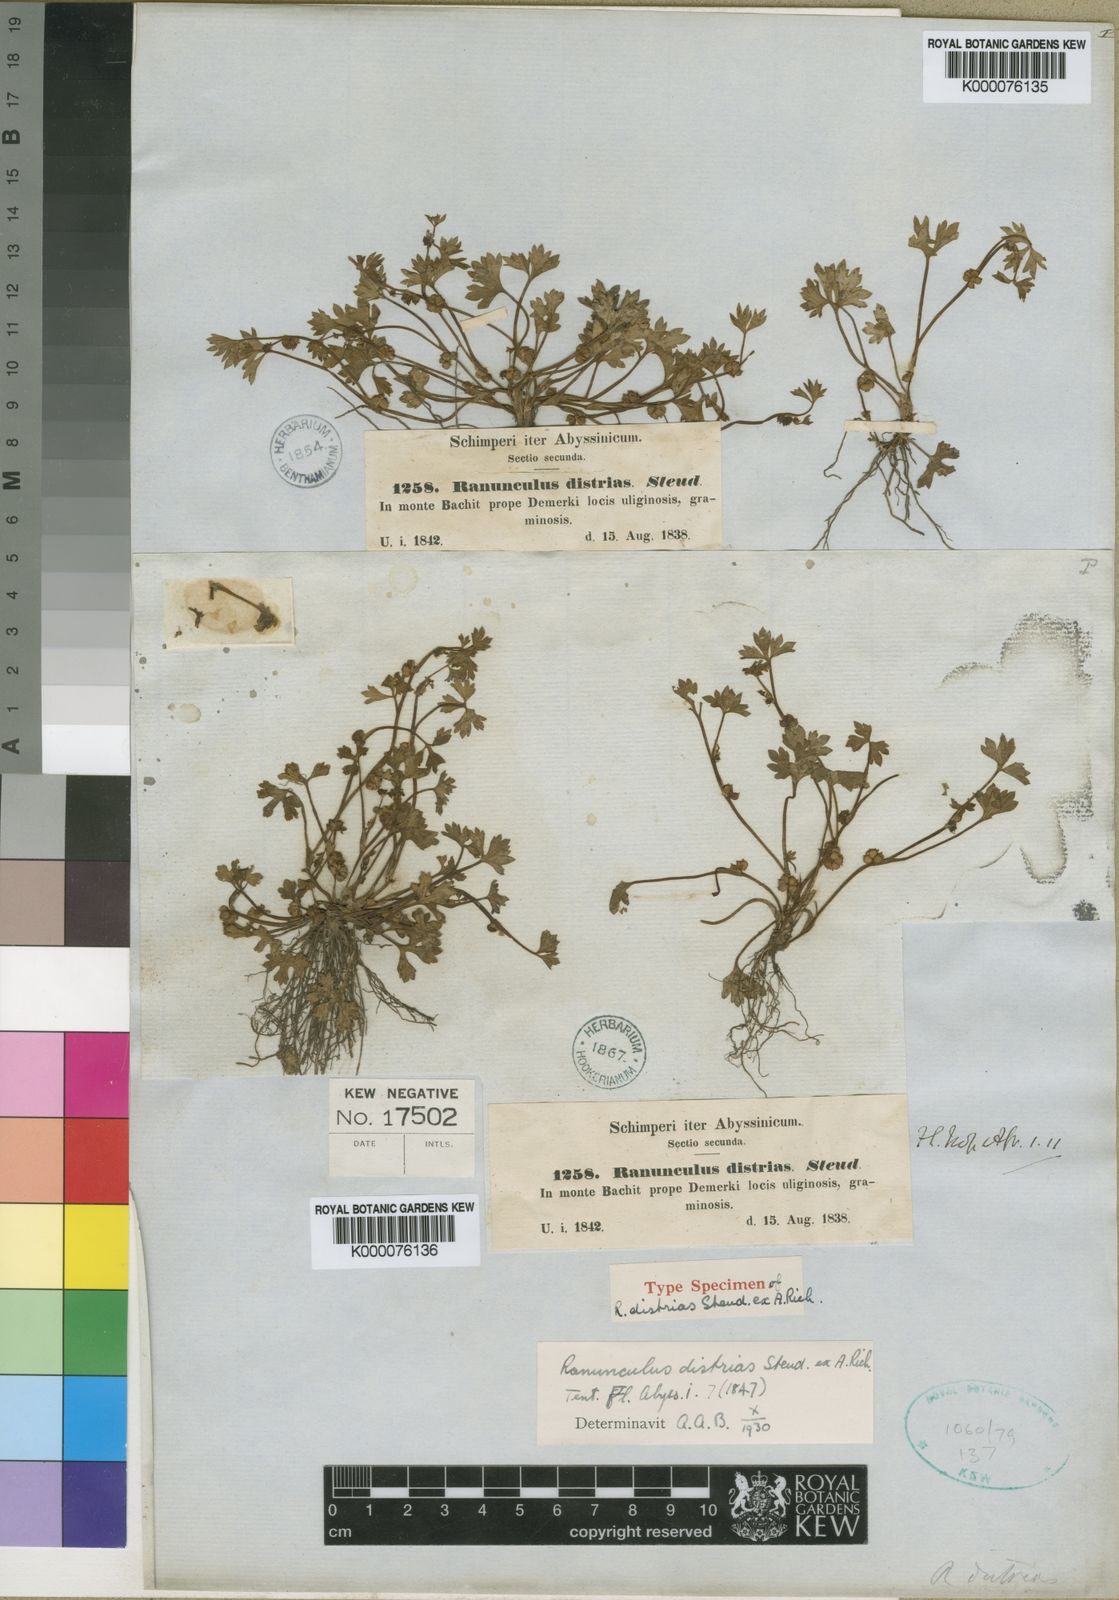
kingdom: Plantae
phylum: Tracheophyta
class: Magnoliopsida
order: Ranunculales
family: Ranunculaceae
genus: Ranunculus
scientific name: Ranunculus cuneilobus
